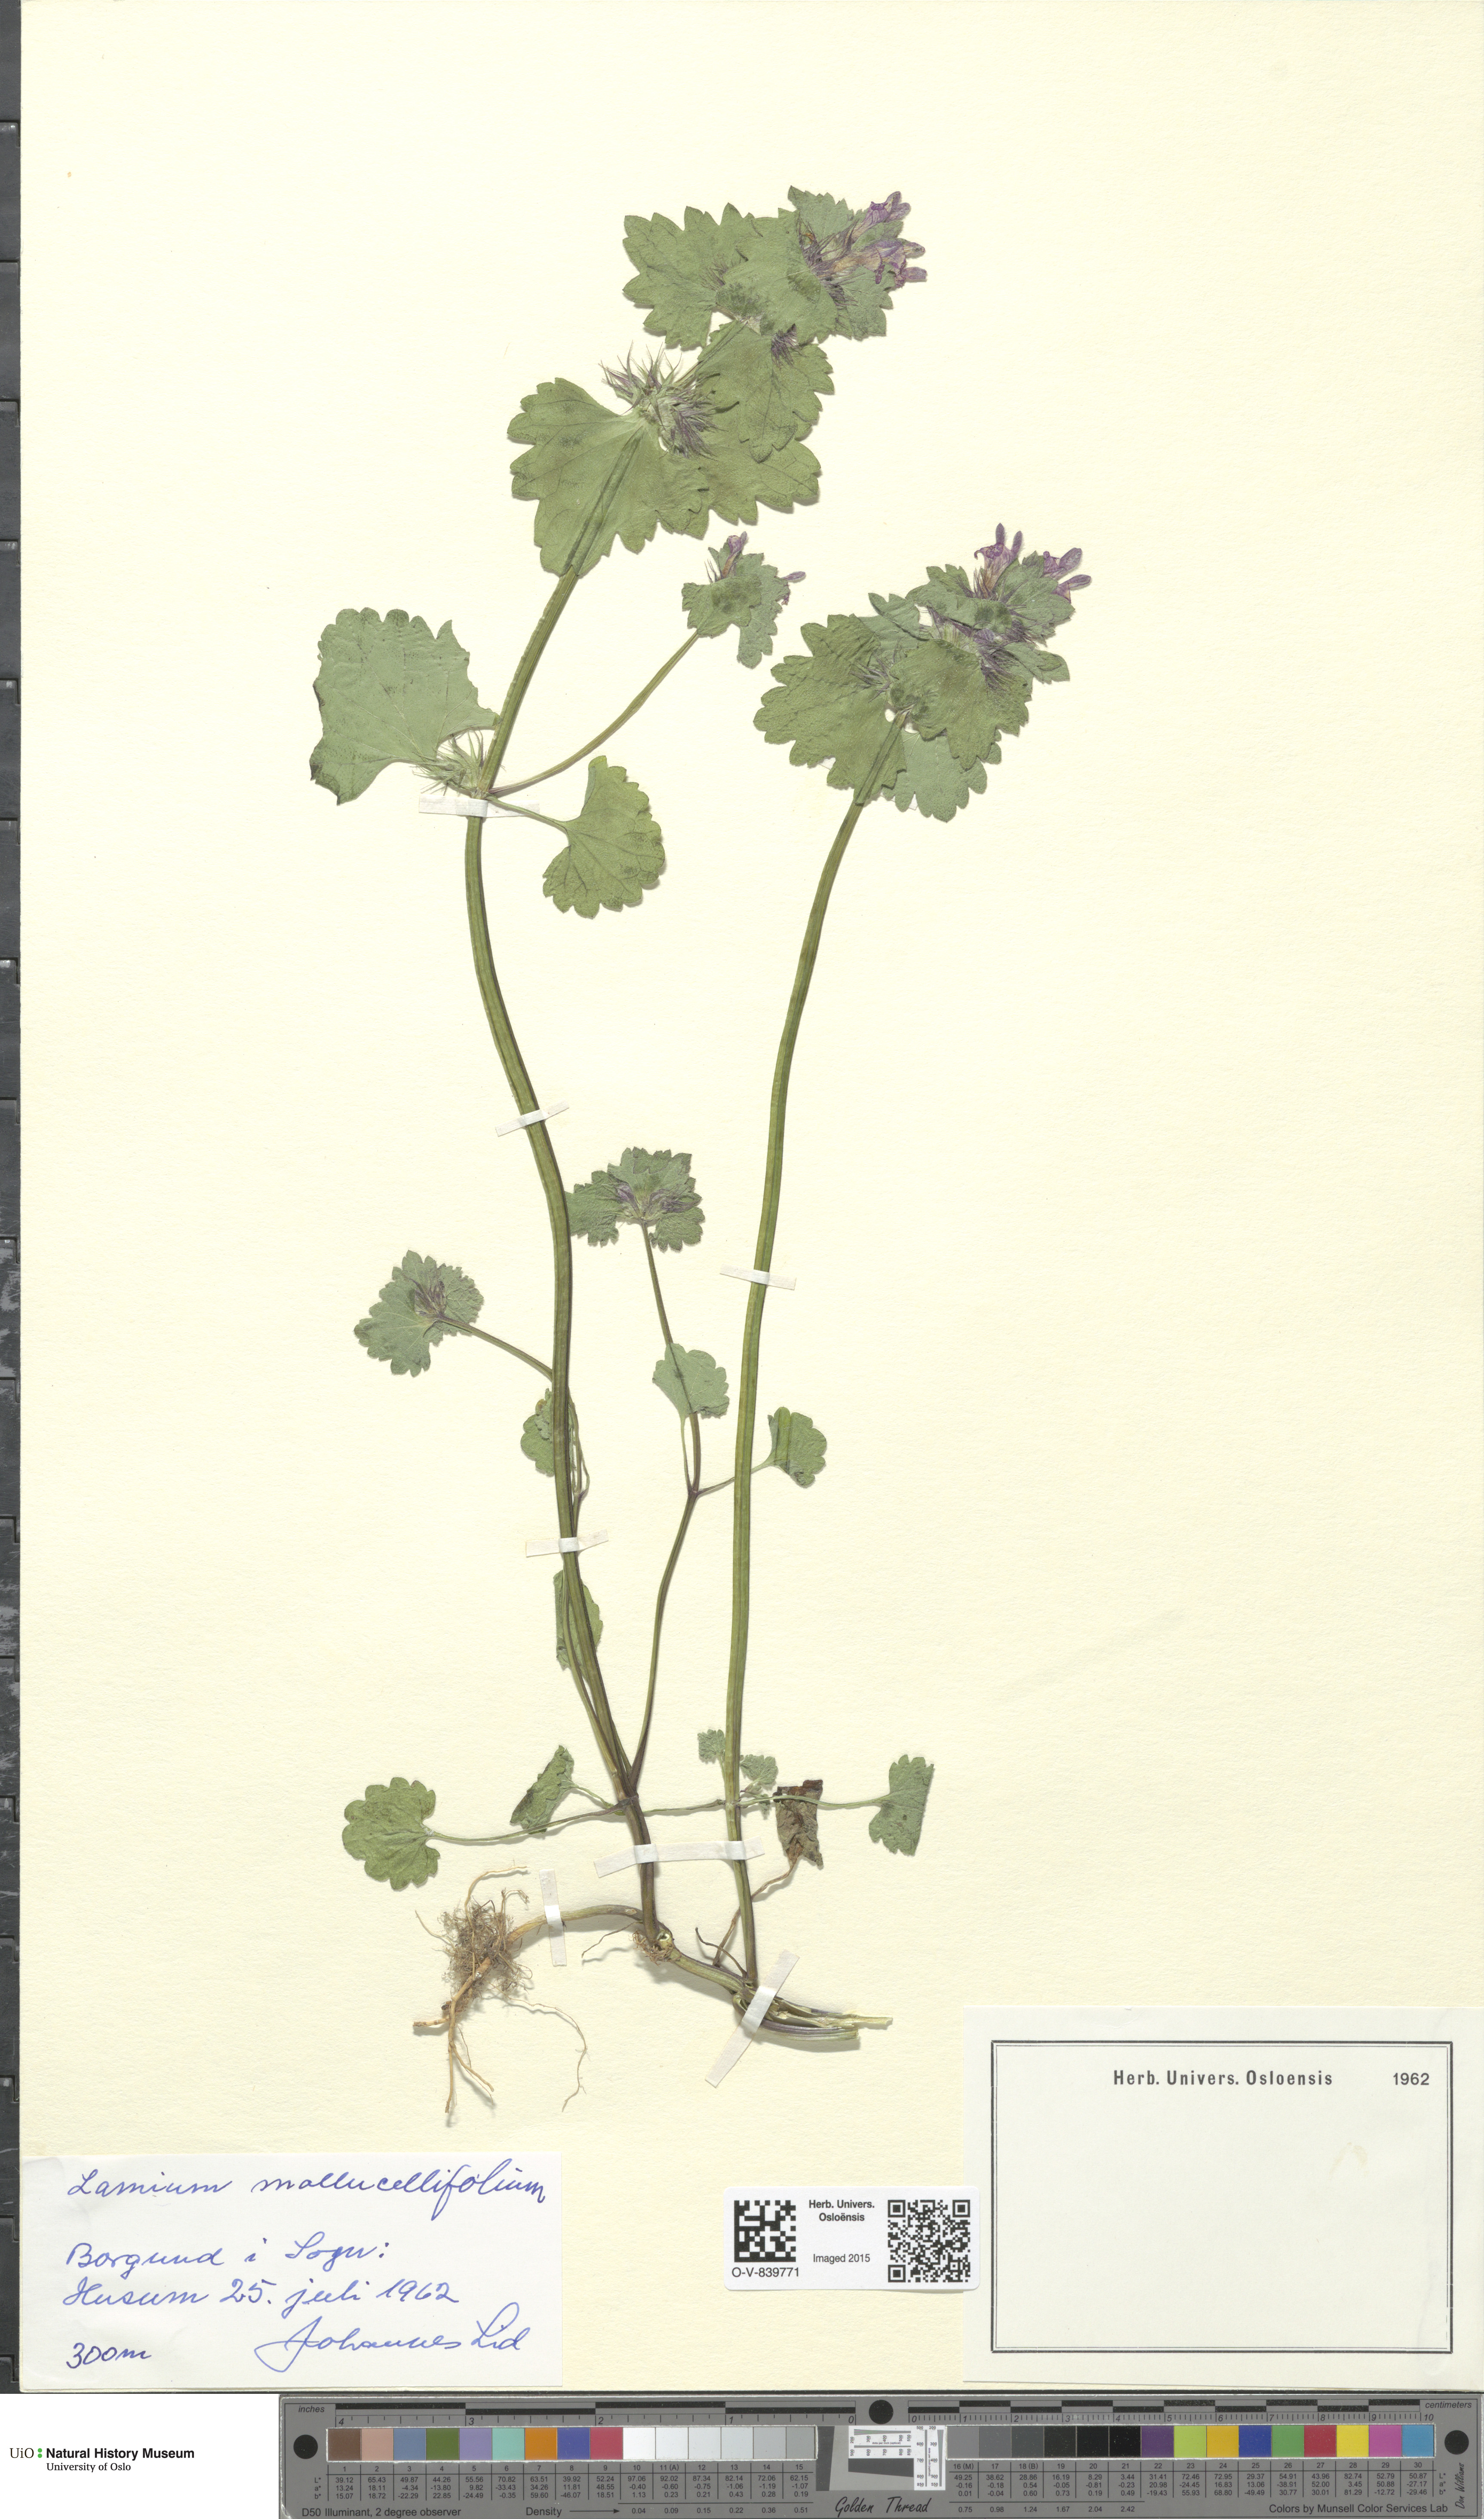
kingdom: Plantae
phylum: Tracheophyta
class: Magnoliopsida
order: Lamiales
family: Lamiaceae
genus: Lamium
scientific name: Lamium confertum
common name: Northern dead-nettle
